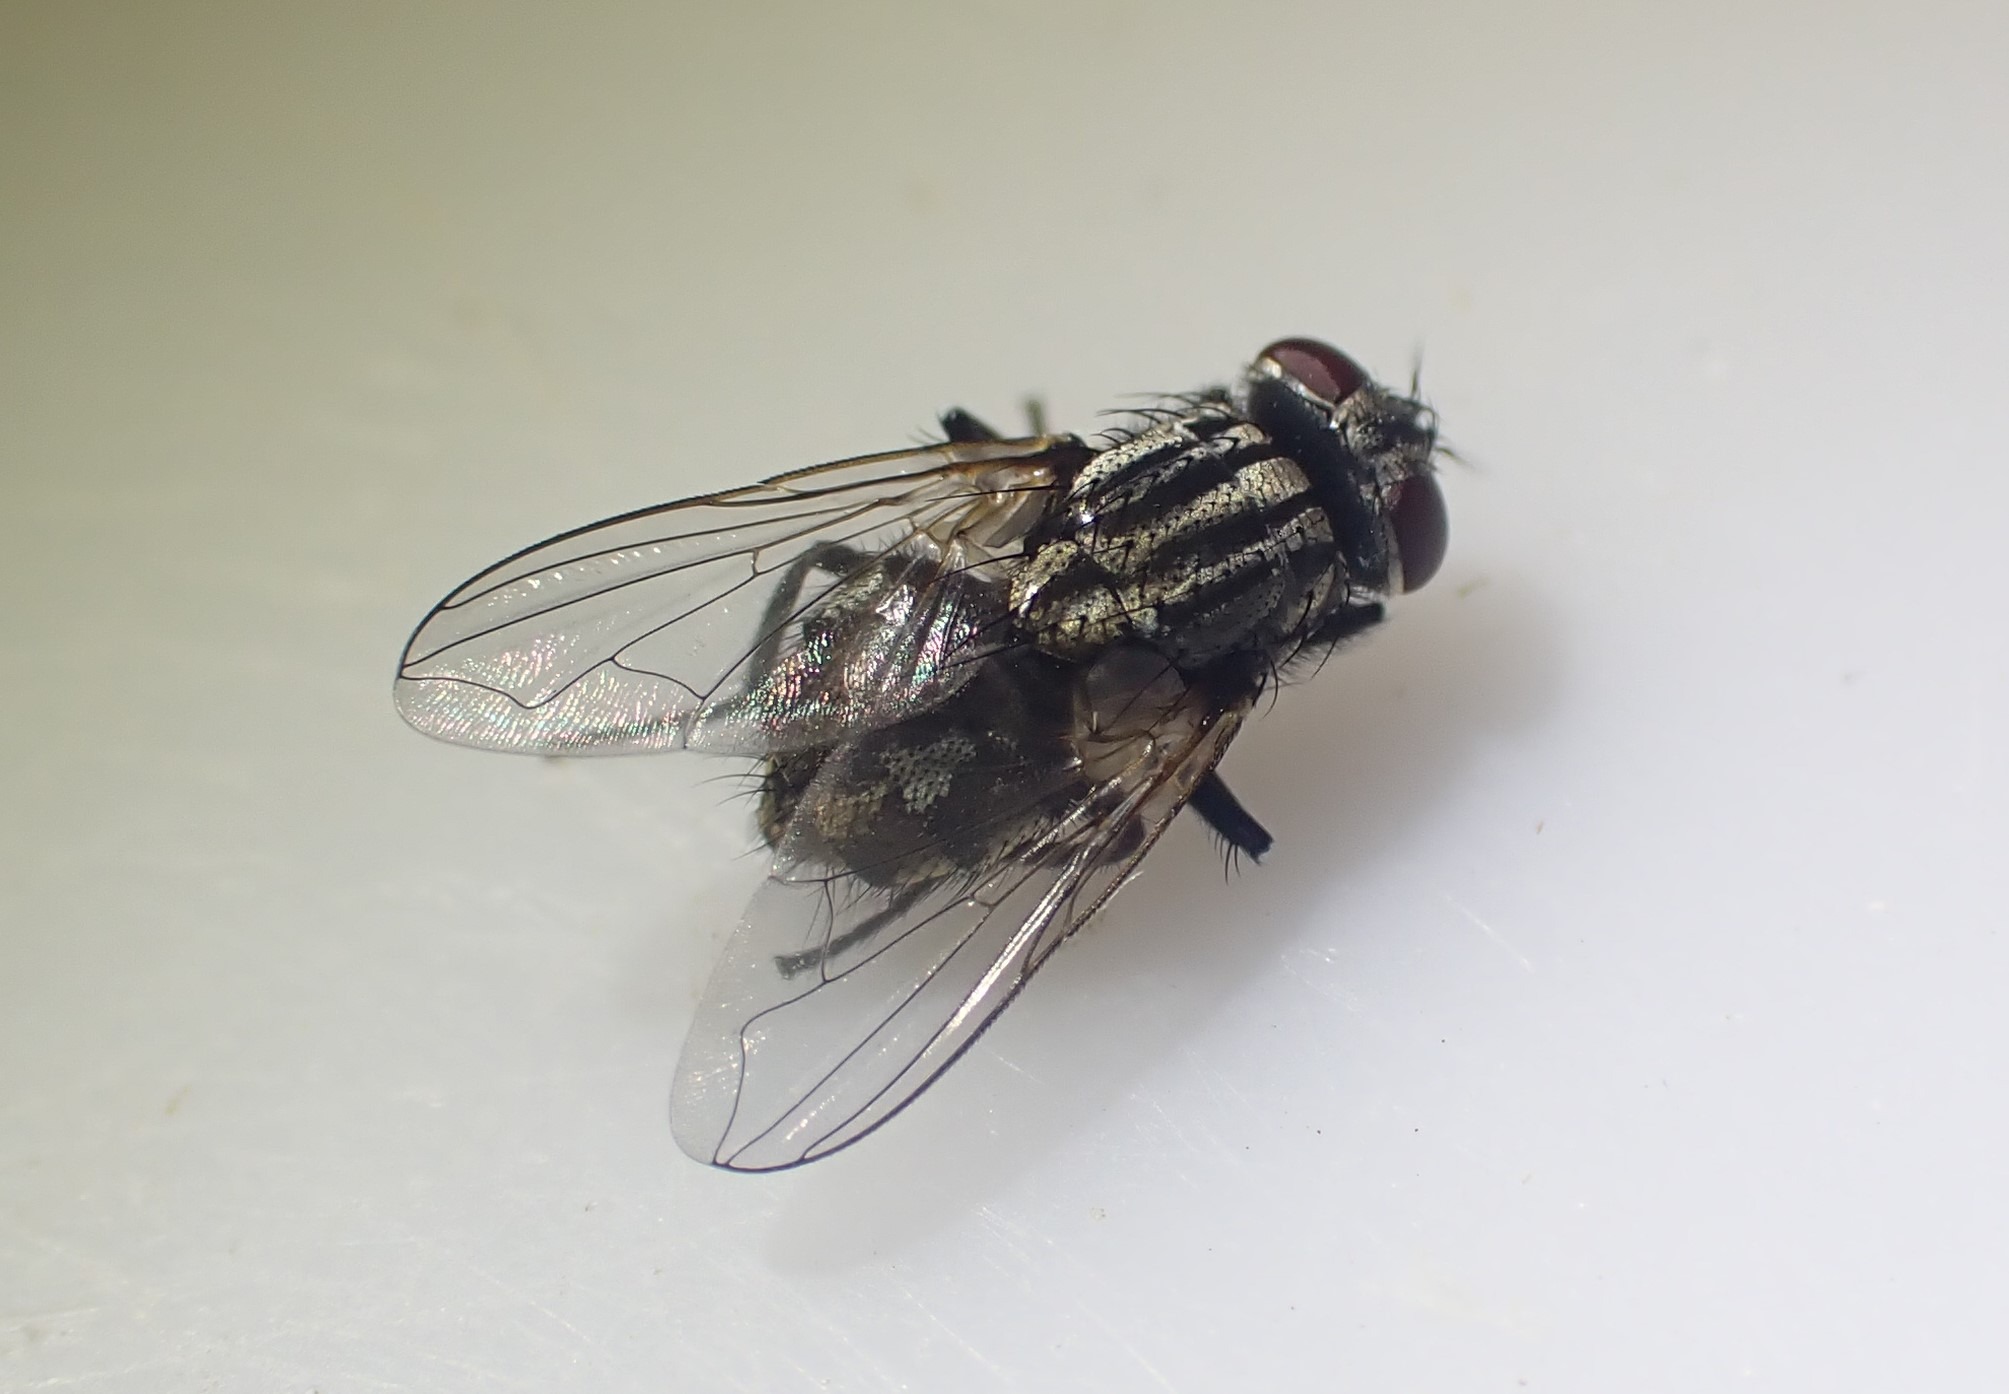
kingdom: Animalia
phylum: Arthropoda
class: Insecta
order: Diptera
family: Muscidae
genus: Musca
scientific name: Musca autumnalis
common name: Kvægflue
